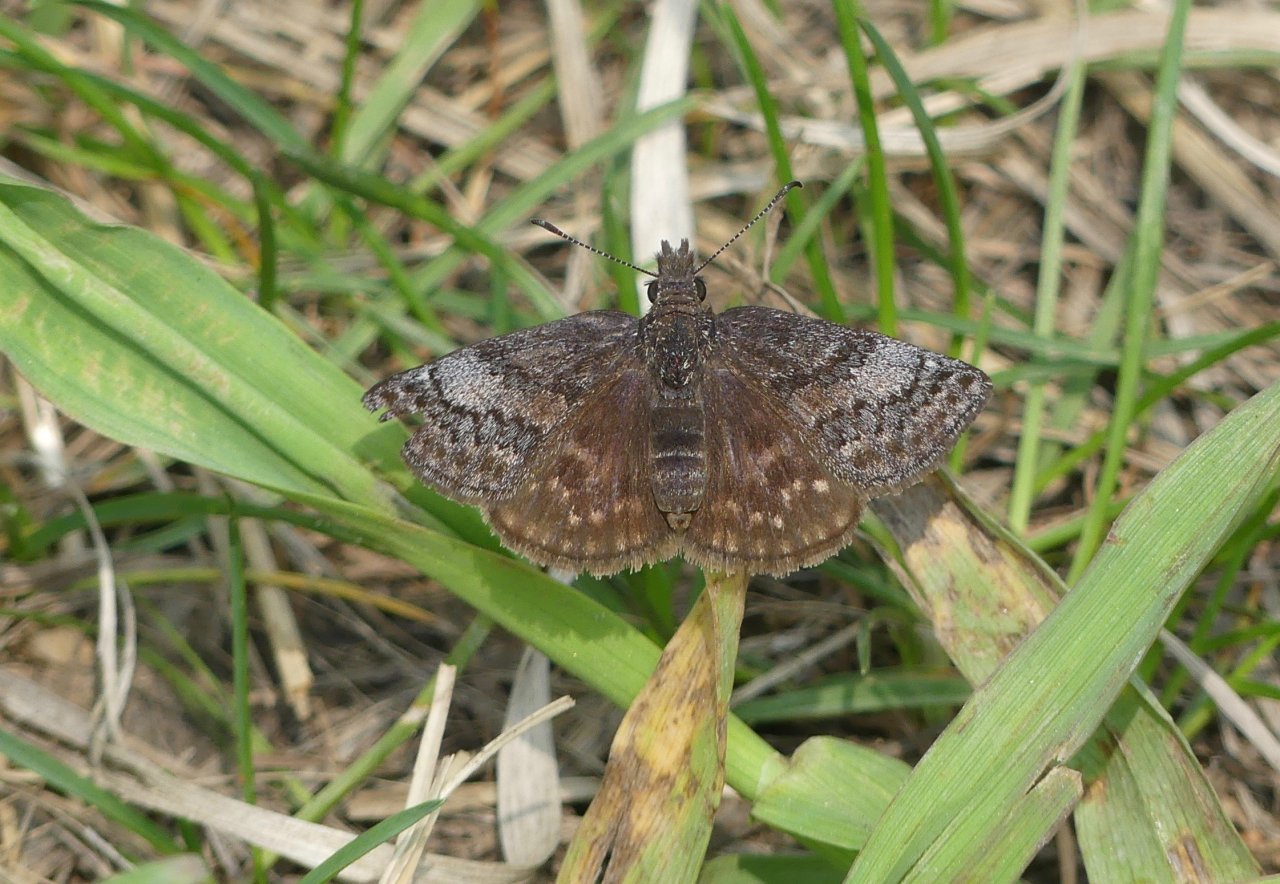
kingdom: Animalia
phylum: Arthropoda
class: Insecta
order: Lepidoptera
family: Hesperiidae
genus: Erynnis
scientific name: Erynnis icelus
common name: Dreamy Duskywing
